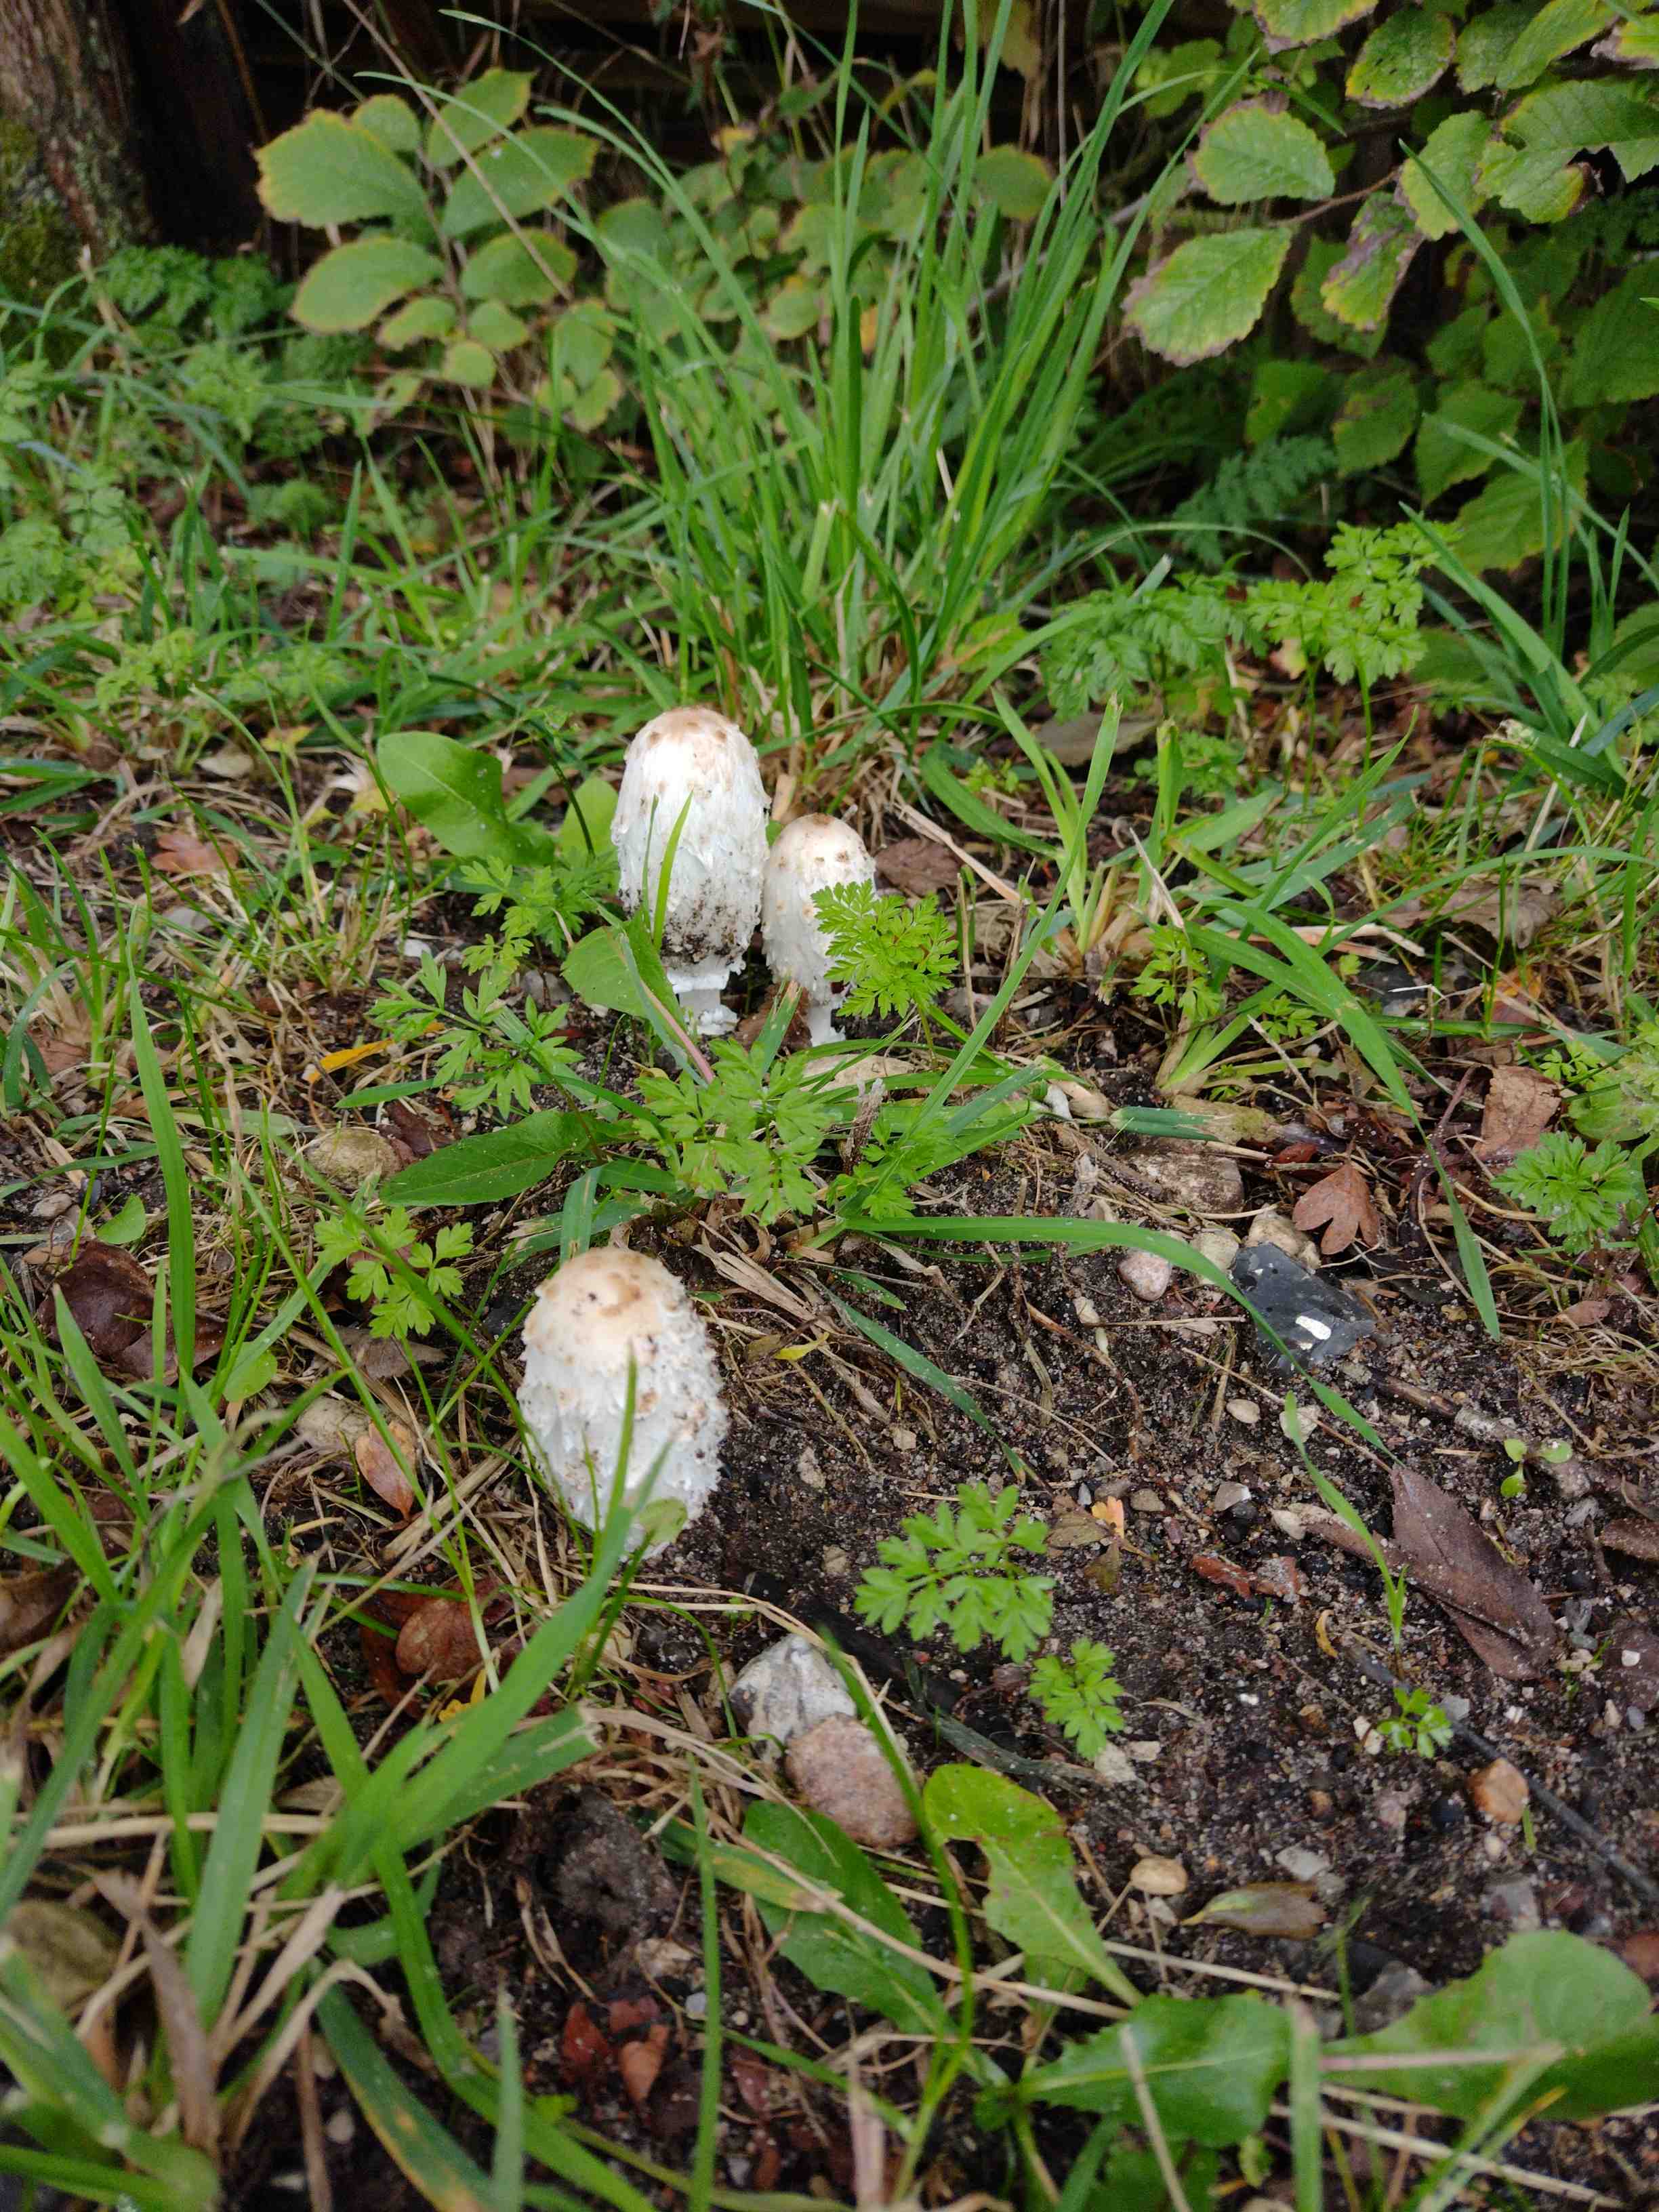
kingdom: Fungi
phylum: Basidiomycota
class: Agaricomycetes
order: Agaricales
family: Agaricaceae
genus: Coprinus
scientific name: Coprinus comatus
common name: stor parykhat
